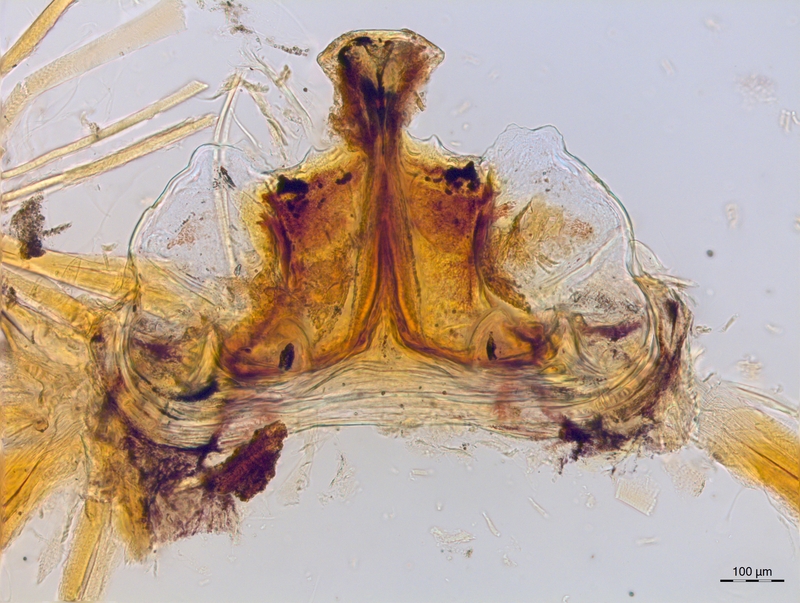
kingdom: Animalia
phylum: Arthropoda
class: Diplopoda
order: Chordeumatida
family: Craspedosomatidae
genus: Craspedosoma
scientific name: Craspedosoma slavum
